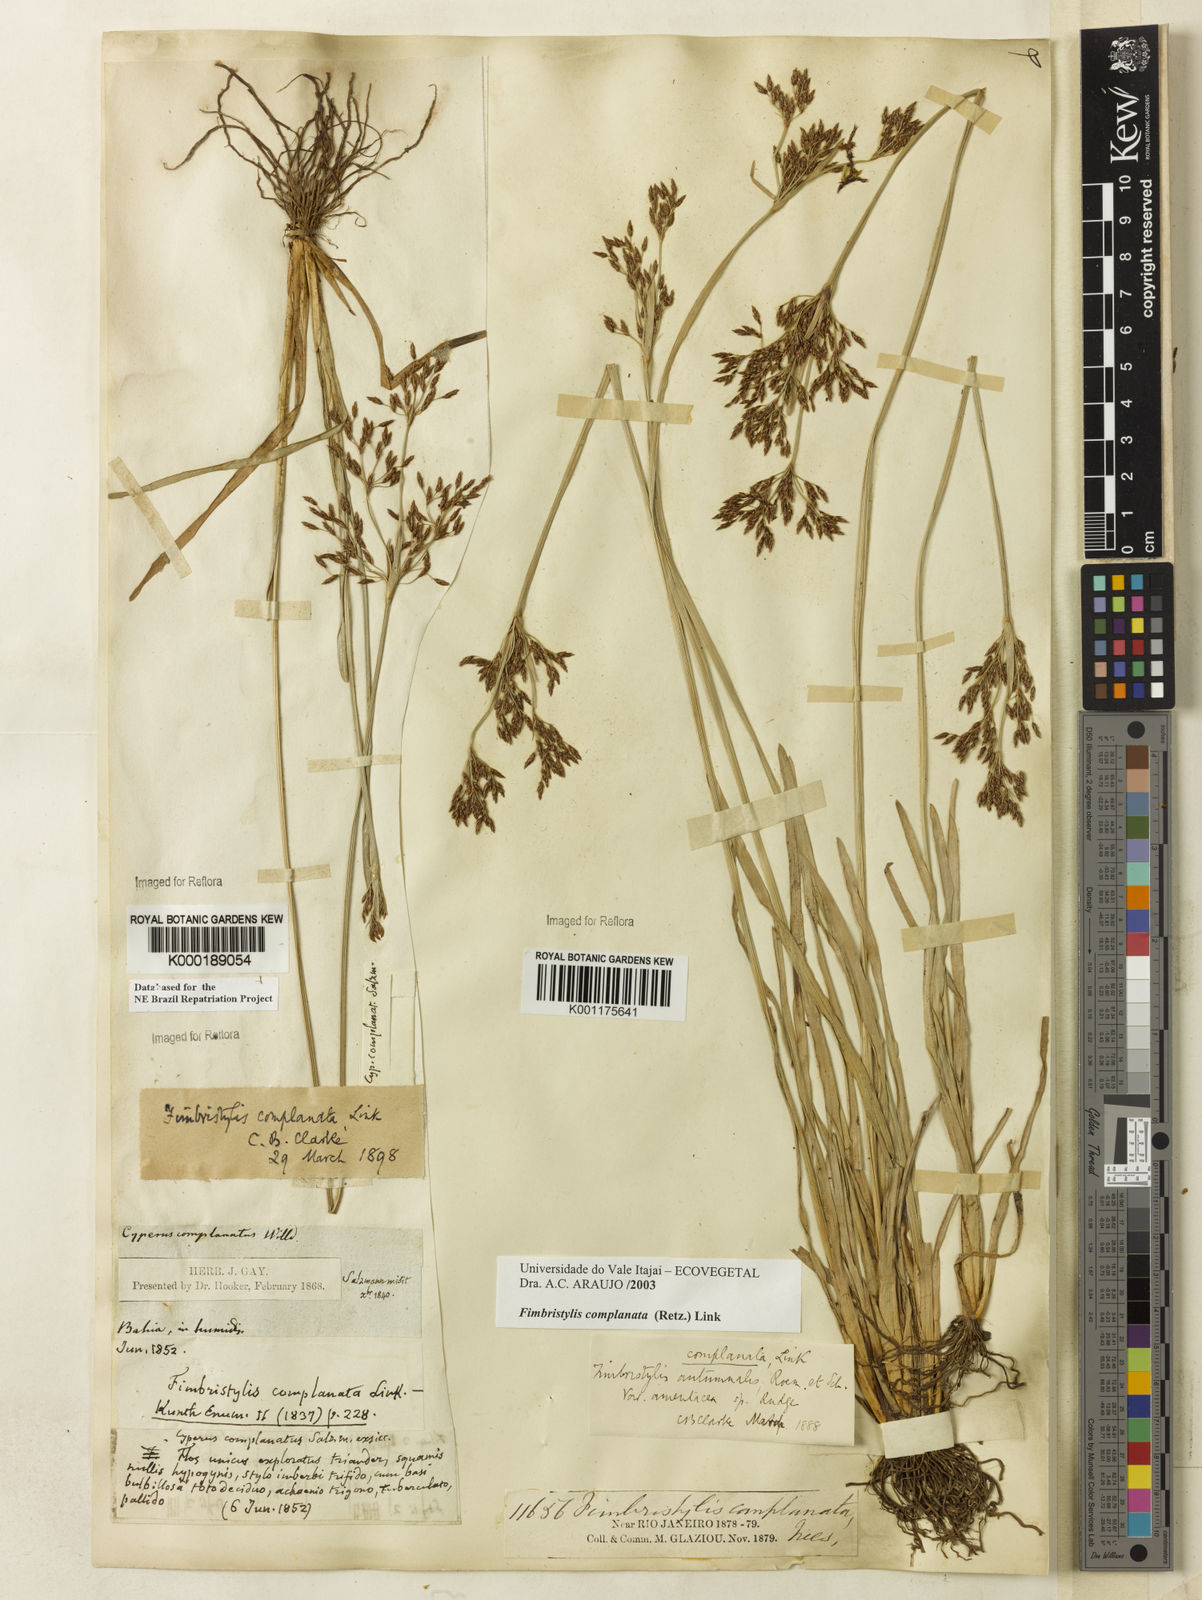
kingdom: Plantae
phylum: Tracheophyta
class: Liliopsida
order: Poales
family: Cyperaceae
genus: Fimbristylis
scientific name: Fimbristylis complanata
